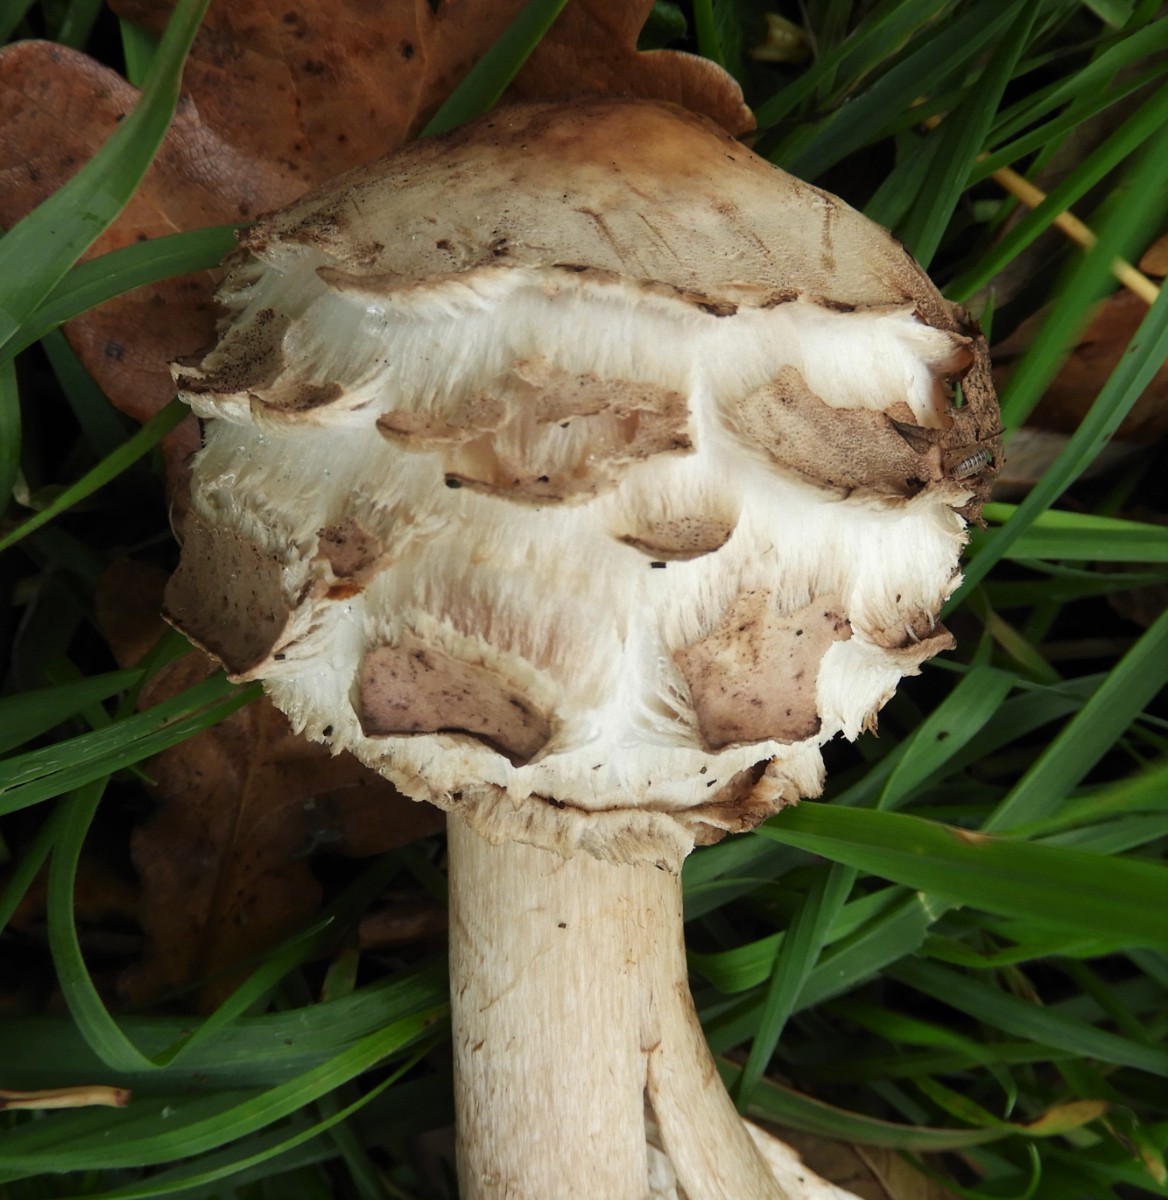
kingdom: Fungi
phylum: Basidiomycota
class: Agaricomycetes
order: Agaricales
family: Agaricaceae
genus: Chlorophyllum
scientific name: Chlorophyllum olivieri
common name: almindelig rabarberhat
